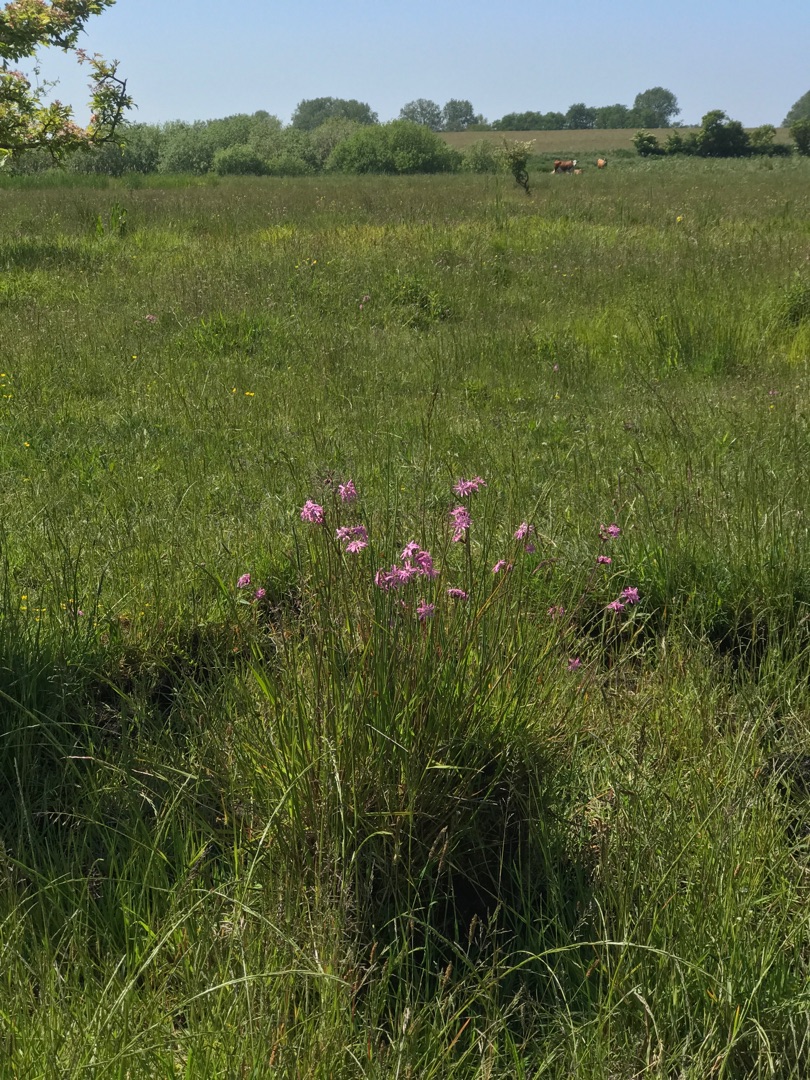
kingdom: Plantae
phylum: Tracheophyta
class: Magnoliopsida
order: Caryophyllales
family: Caryophyllaceae
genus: Silene
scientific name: Silene flos-cuculi
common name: Trævlekrone
